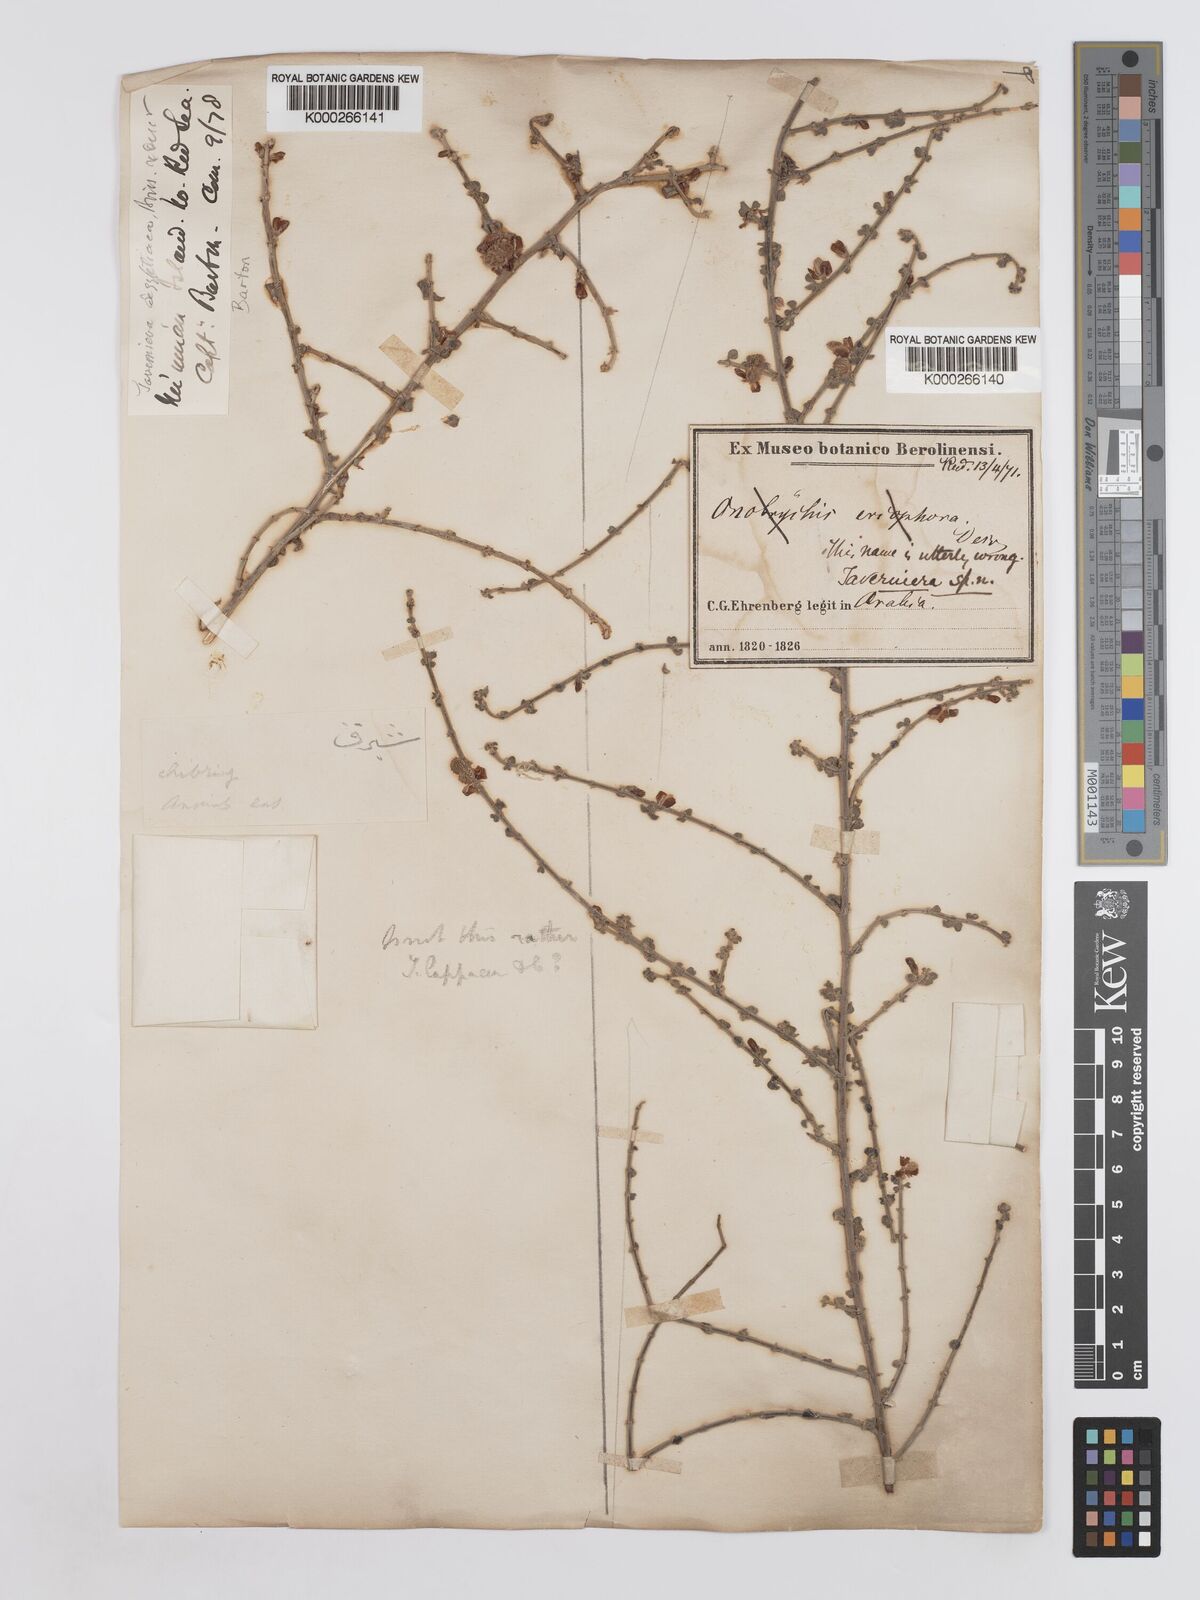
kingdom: Plantae
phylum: Tracheophyta
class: Magnoliopsida
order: Fabales
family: Fabaceae
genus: Taverniera
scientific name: Taverniera lappacea
